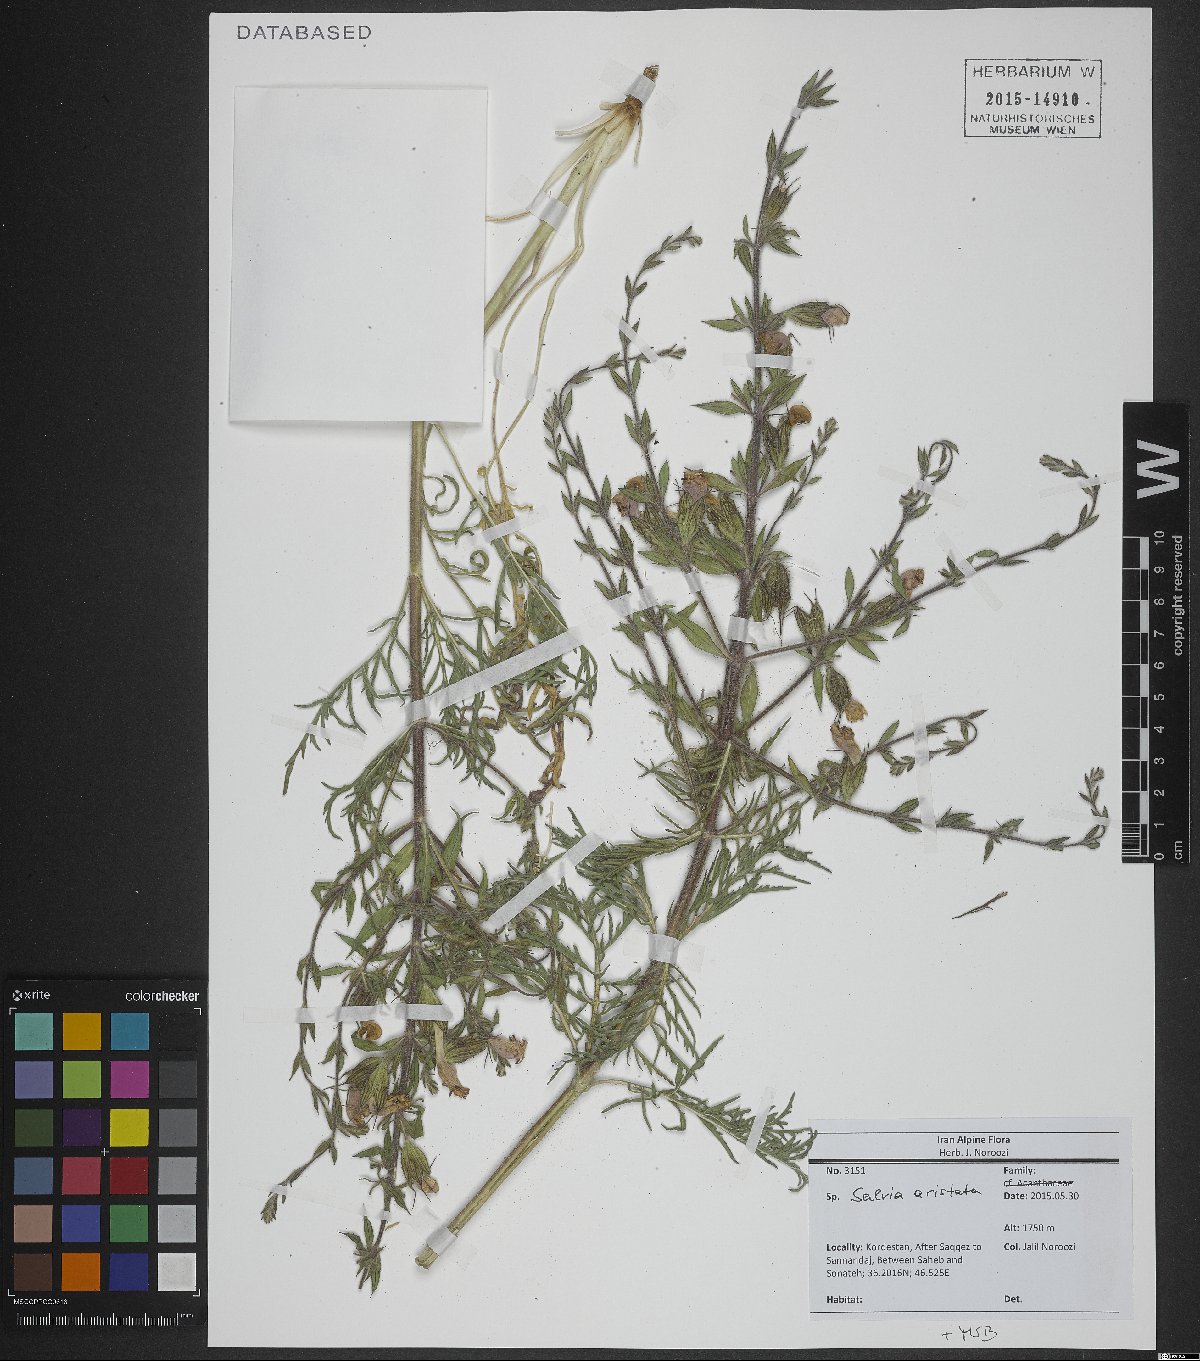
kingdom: Plantae
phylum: Tracheophyta
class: Magnoliopsida
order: Lamiales
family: Lamiaceae
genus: Salvia
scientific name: Salvia aristata
